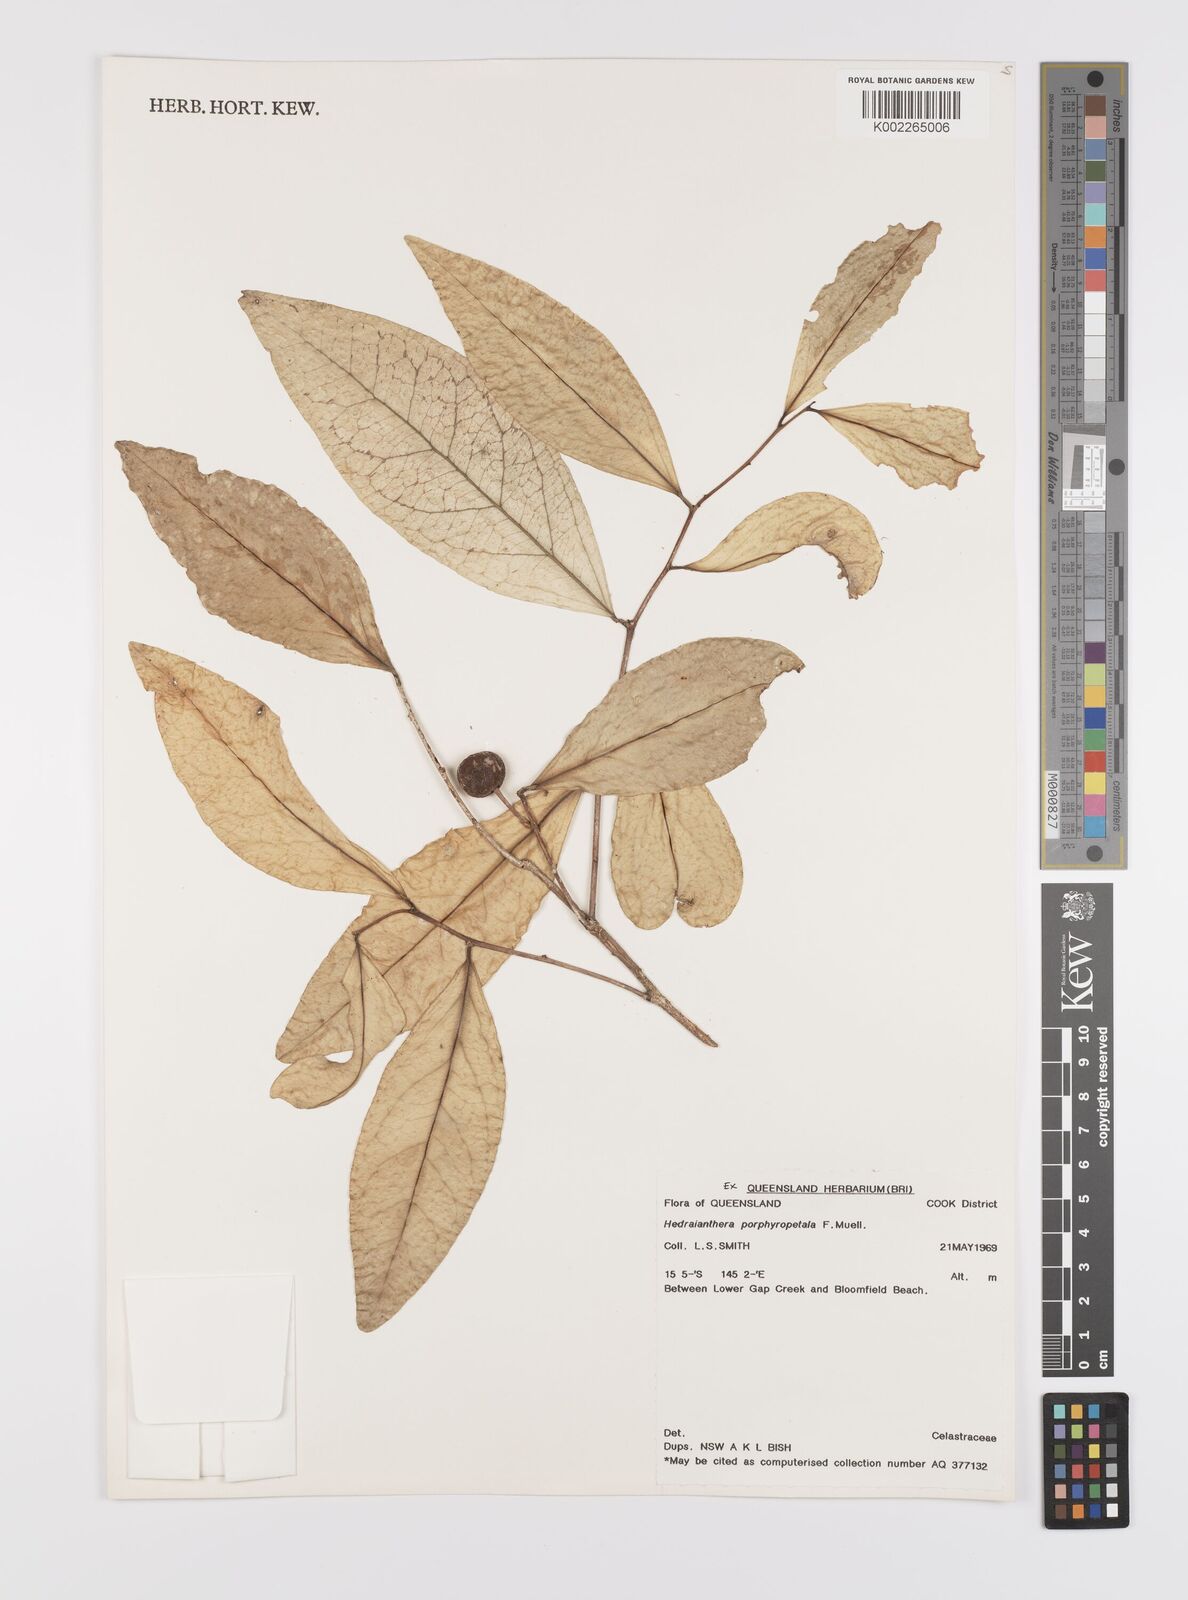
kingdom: Plantae
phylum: Tracheophyta
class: Magnoliopsida
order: Celastrales
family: Celastraceae
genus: Hedraianthera
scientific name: Hedraianthera porphyropetala
